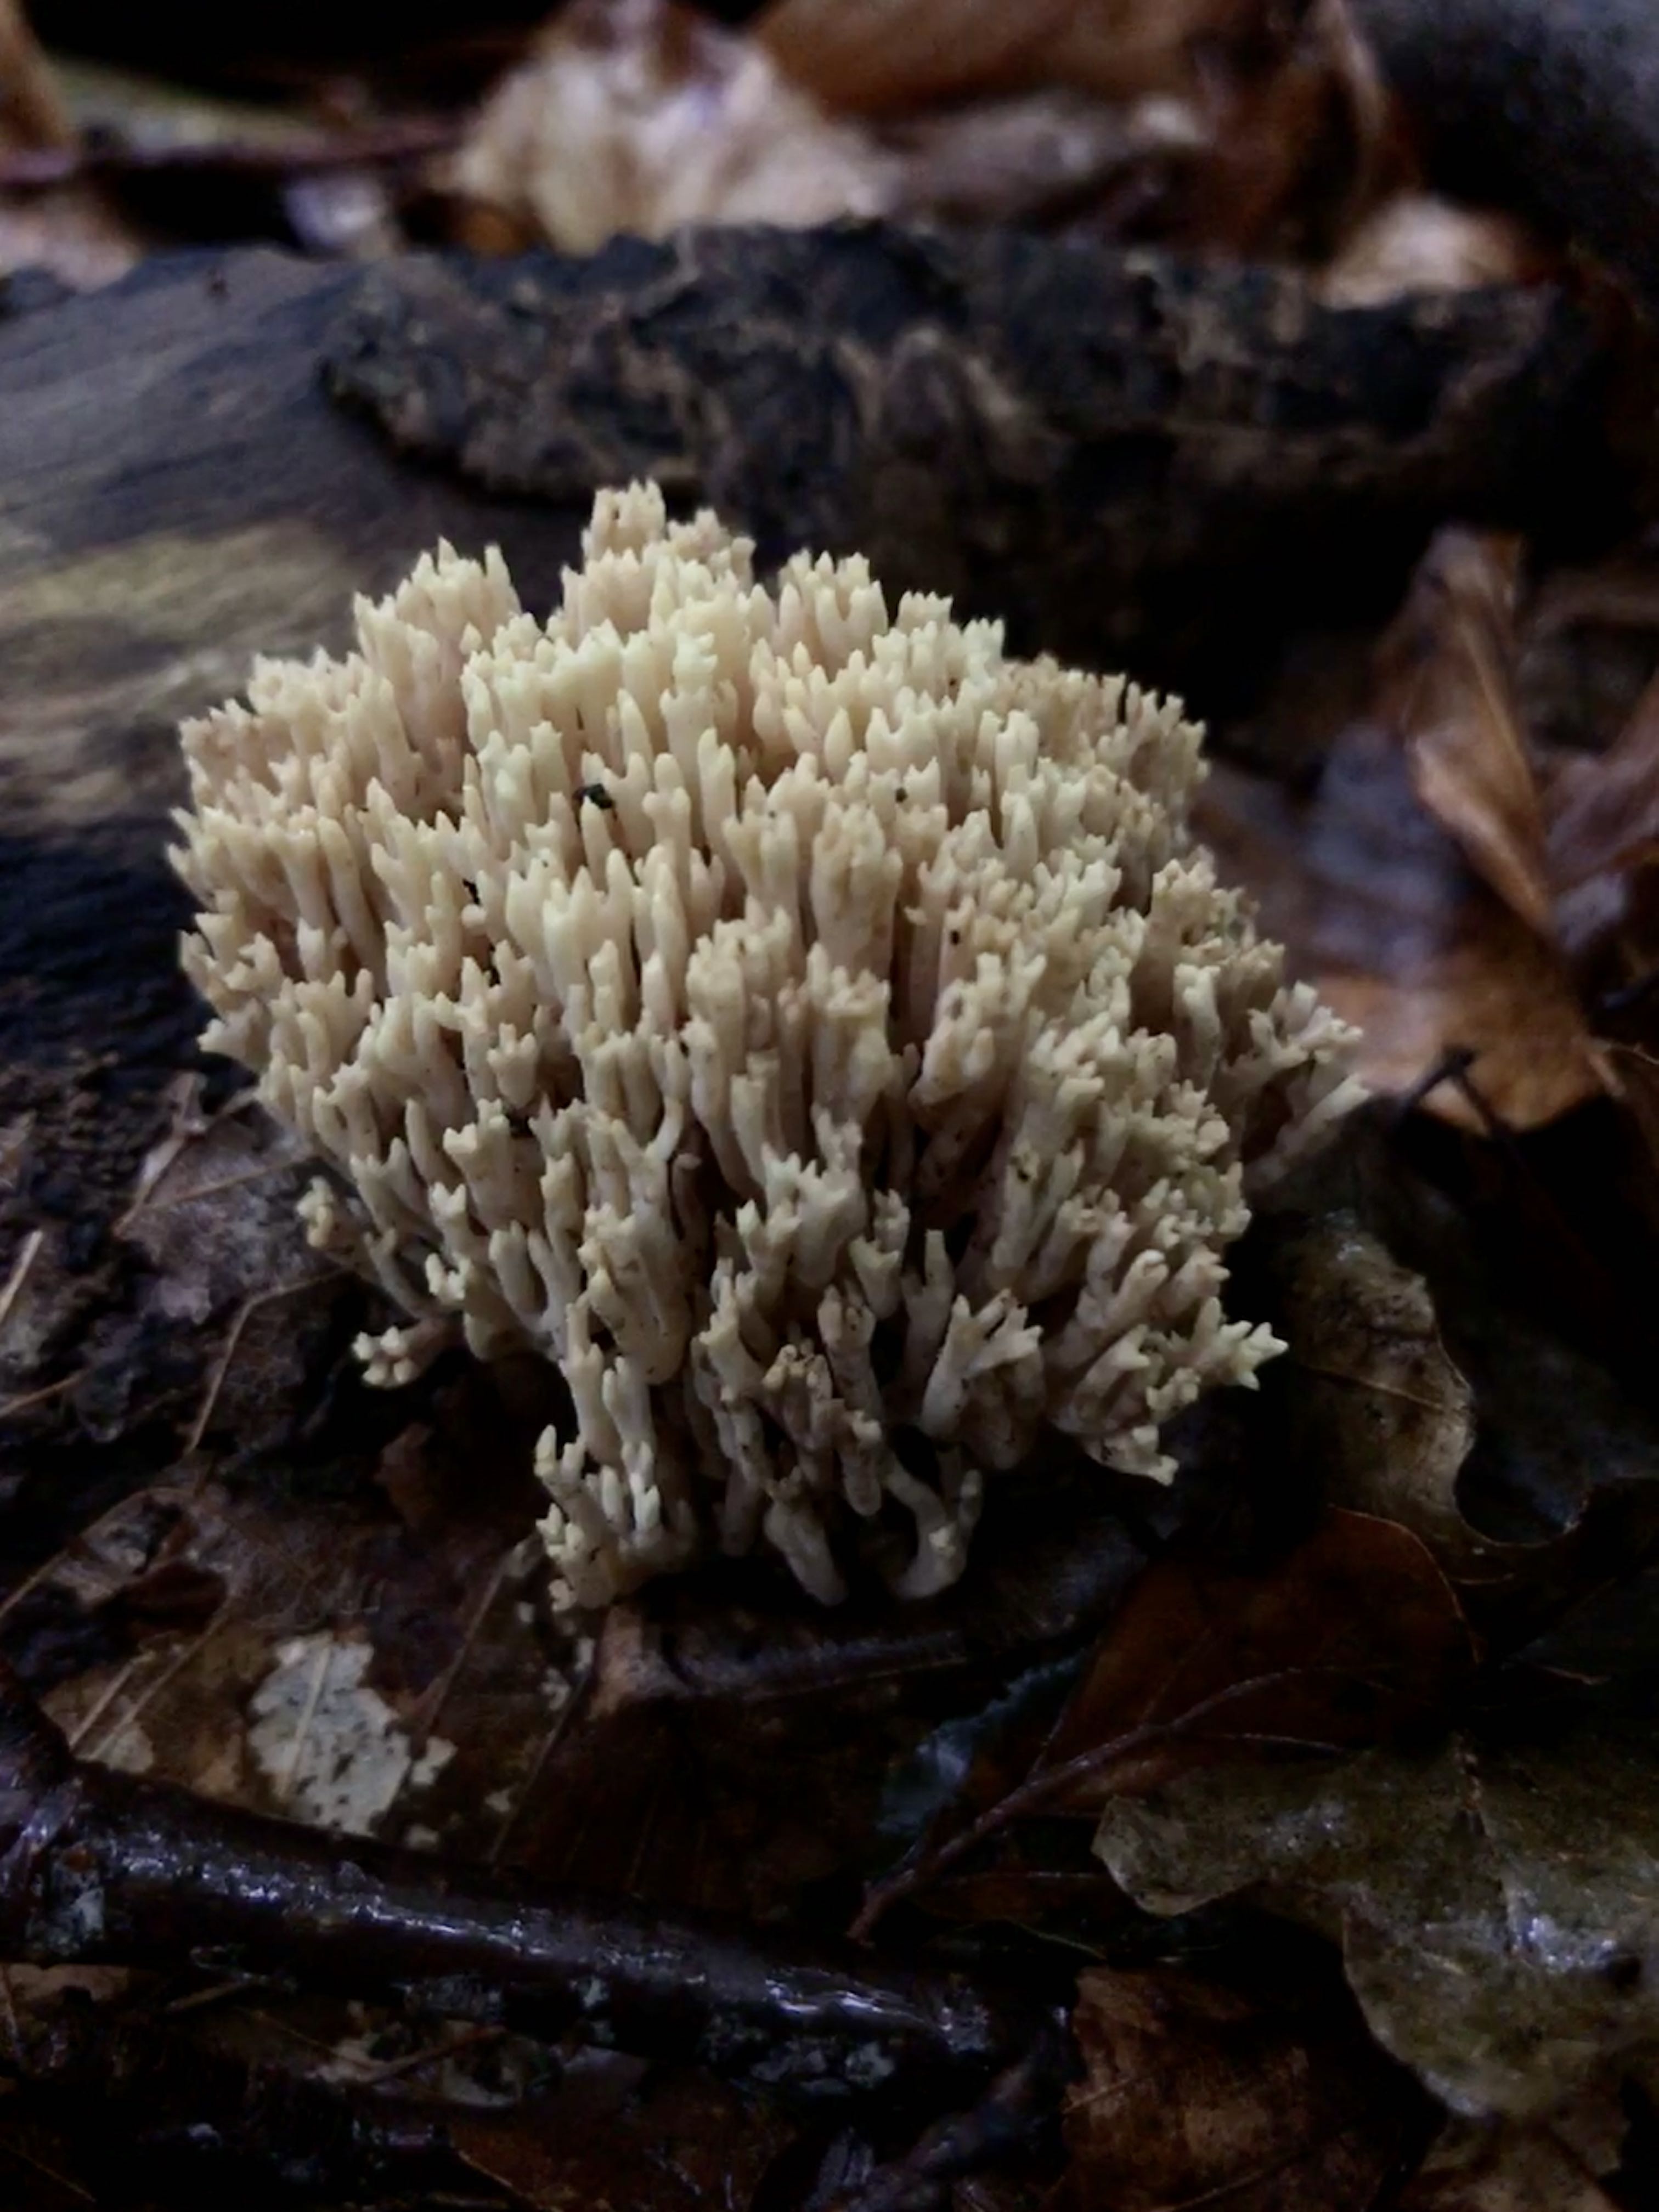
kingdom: Fungi
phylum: Basidiomycota
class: Agaricomycetes
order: Gomphales
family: Gomphaceae
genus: Ramaria
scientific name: Ramaria stricta
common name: rank koralsvamp
